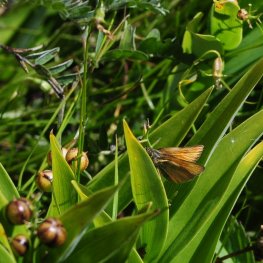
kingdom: Animalia
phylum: Arthropoda
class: Insecta
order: Lepidoptera
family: Hesperiidae
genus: Thymelicus
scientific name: Thymelicus lineola
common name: European Skipper
